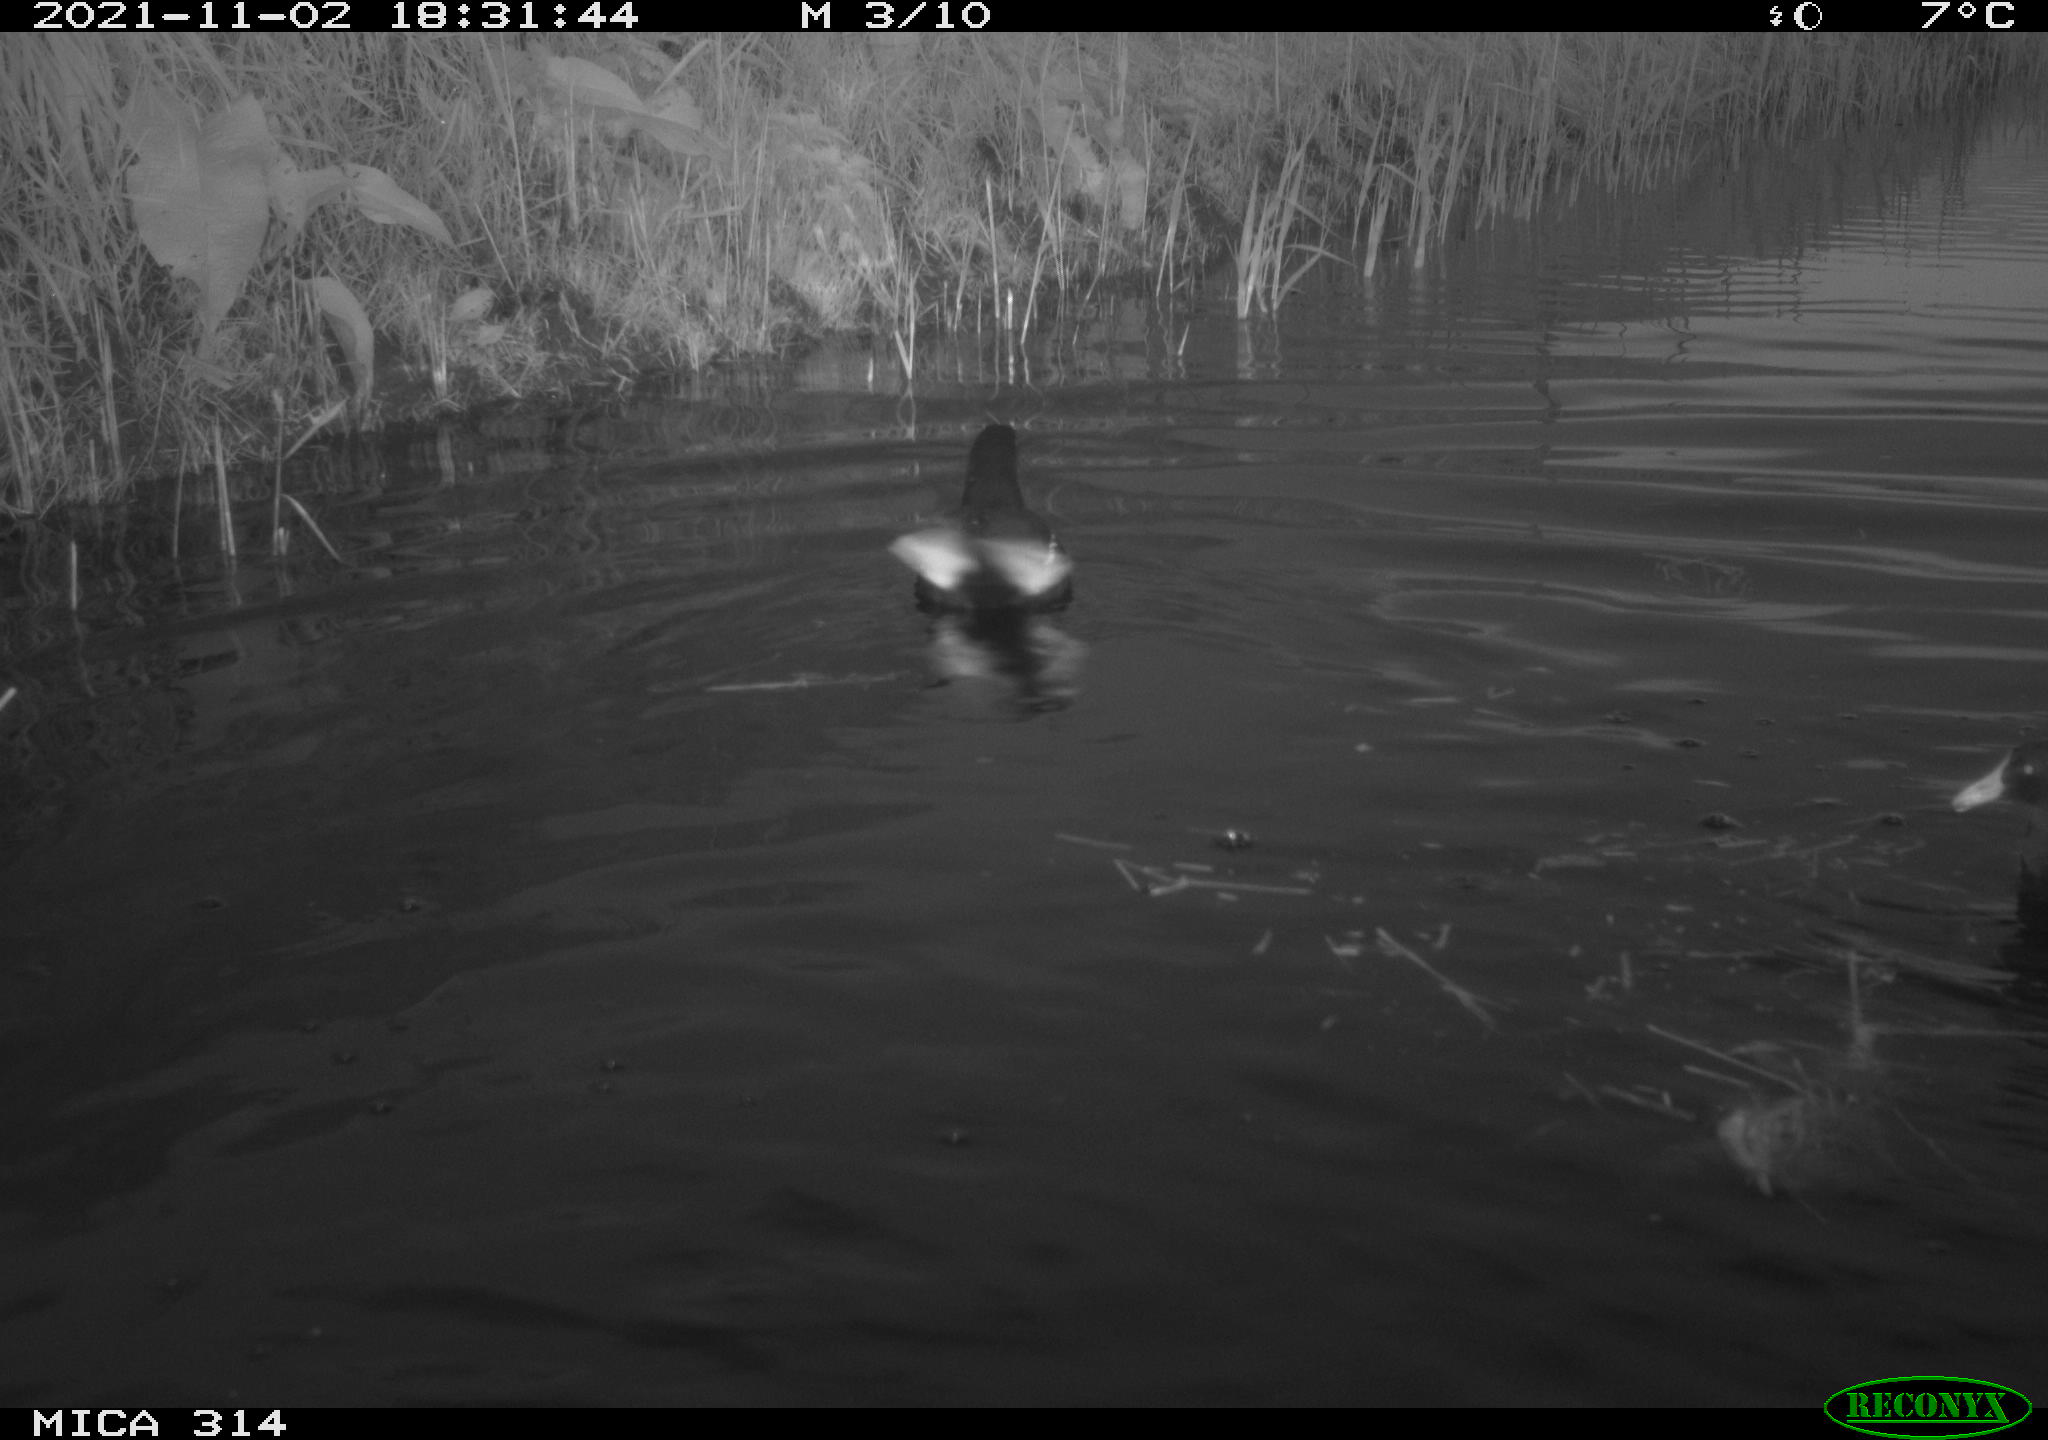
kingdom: Animalia
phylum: Chordata
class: Aves
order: Gruiformes
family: Rallidae
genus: Gallinula
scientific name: Gallinula chloropus
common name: Common moorhen
